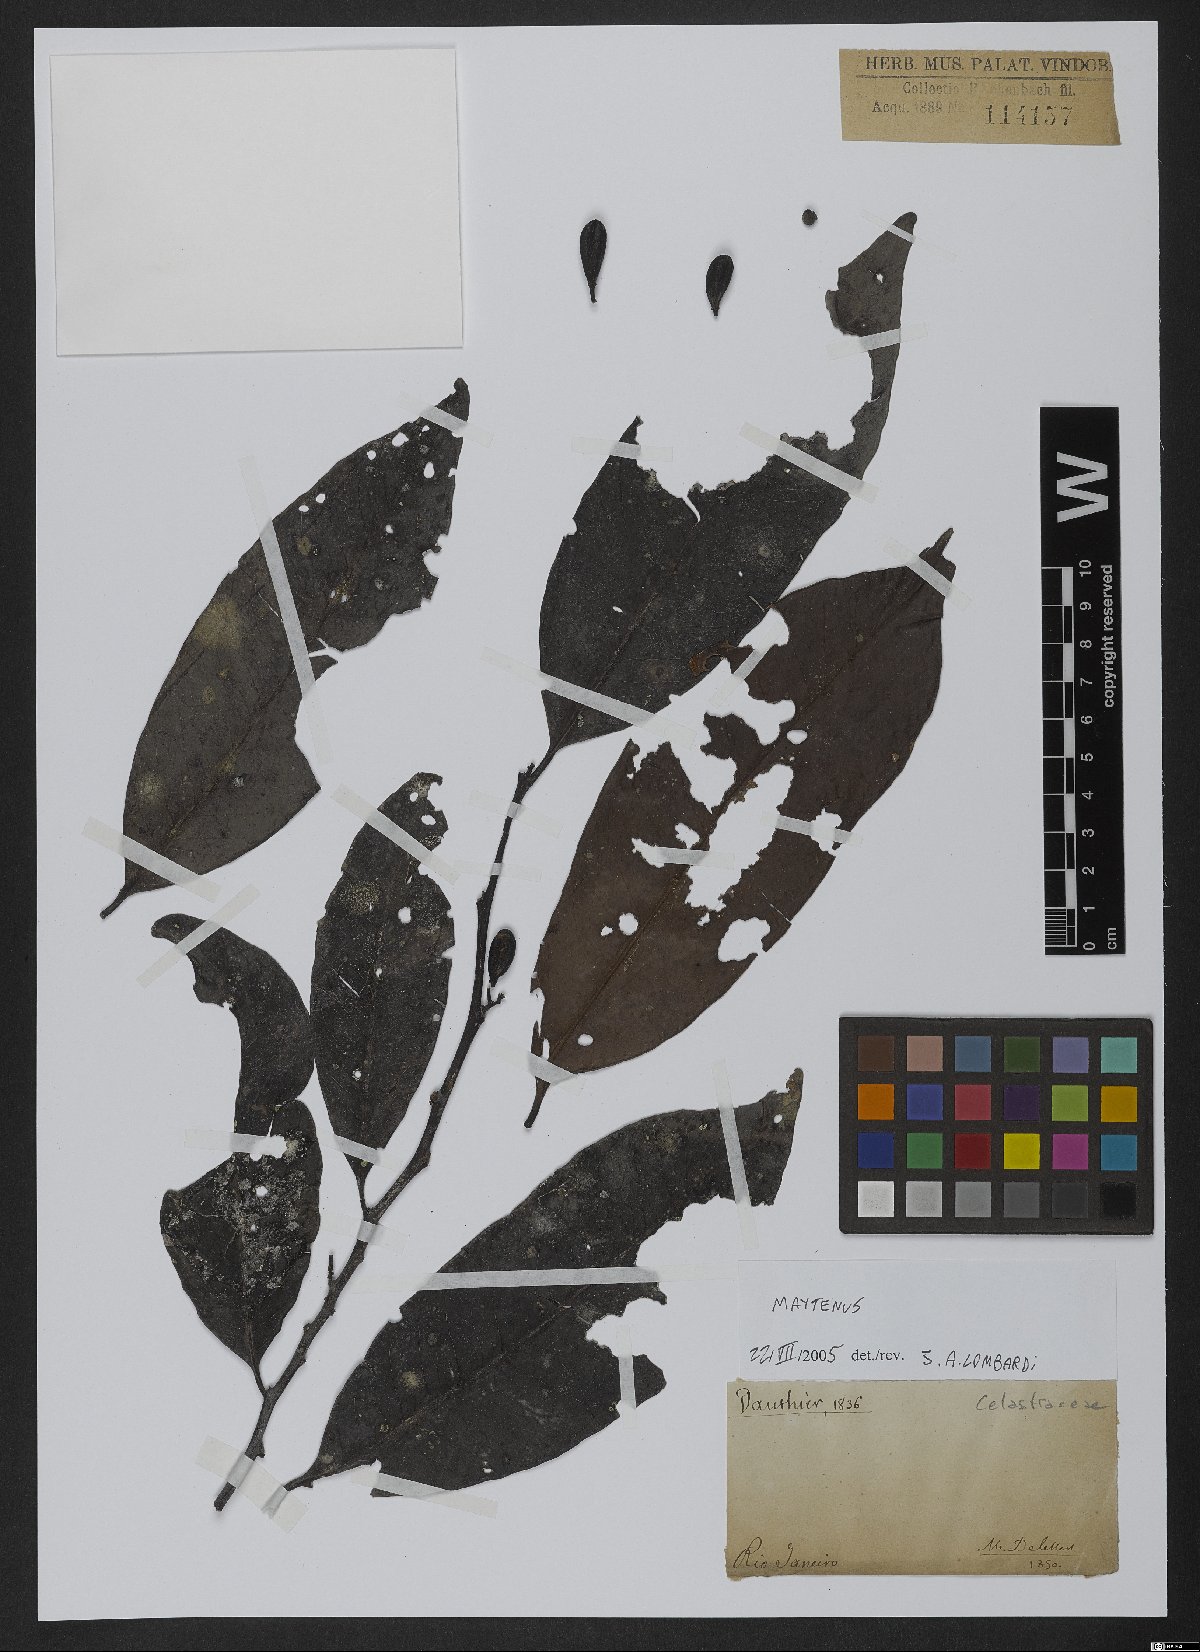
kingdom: Plantae
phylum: Tracheophyta
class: Magnoliopsida
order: Celastrales
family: Celastraceae
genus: Maytenus
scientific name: Maytenus
